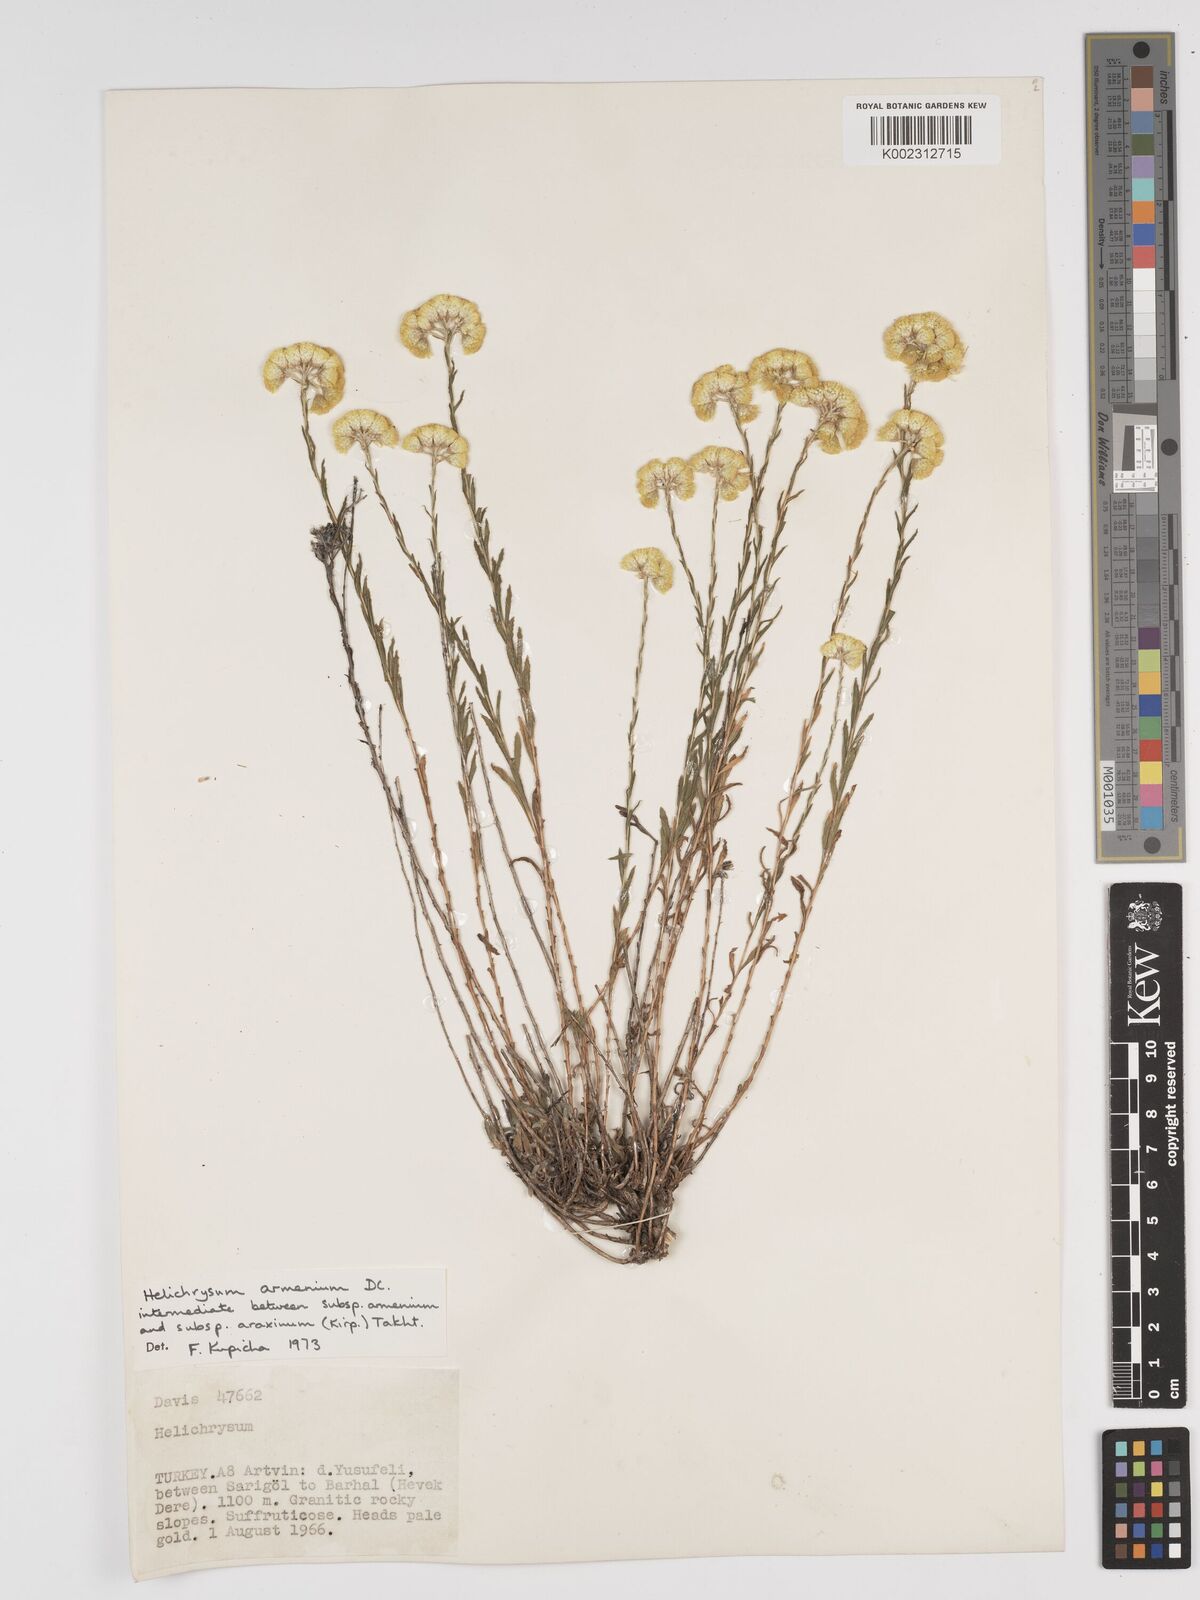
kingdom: Plantae
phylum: Tracheophyta
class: Magnoliopsida
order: Asterales
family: Asteraceae
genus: Helichrysum
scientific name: Helichrysum araxinum
